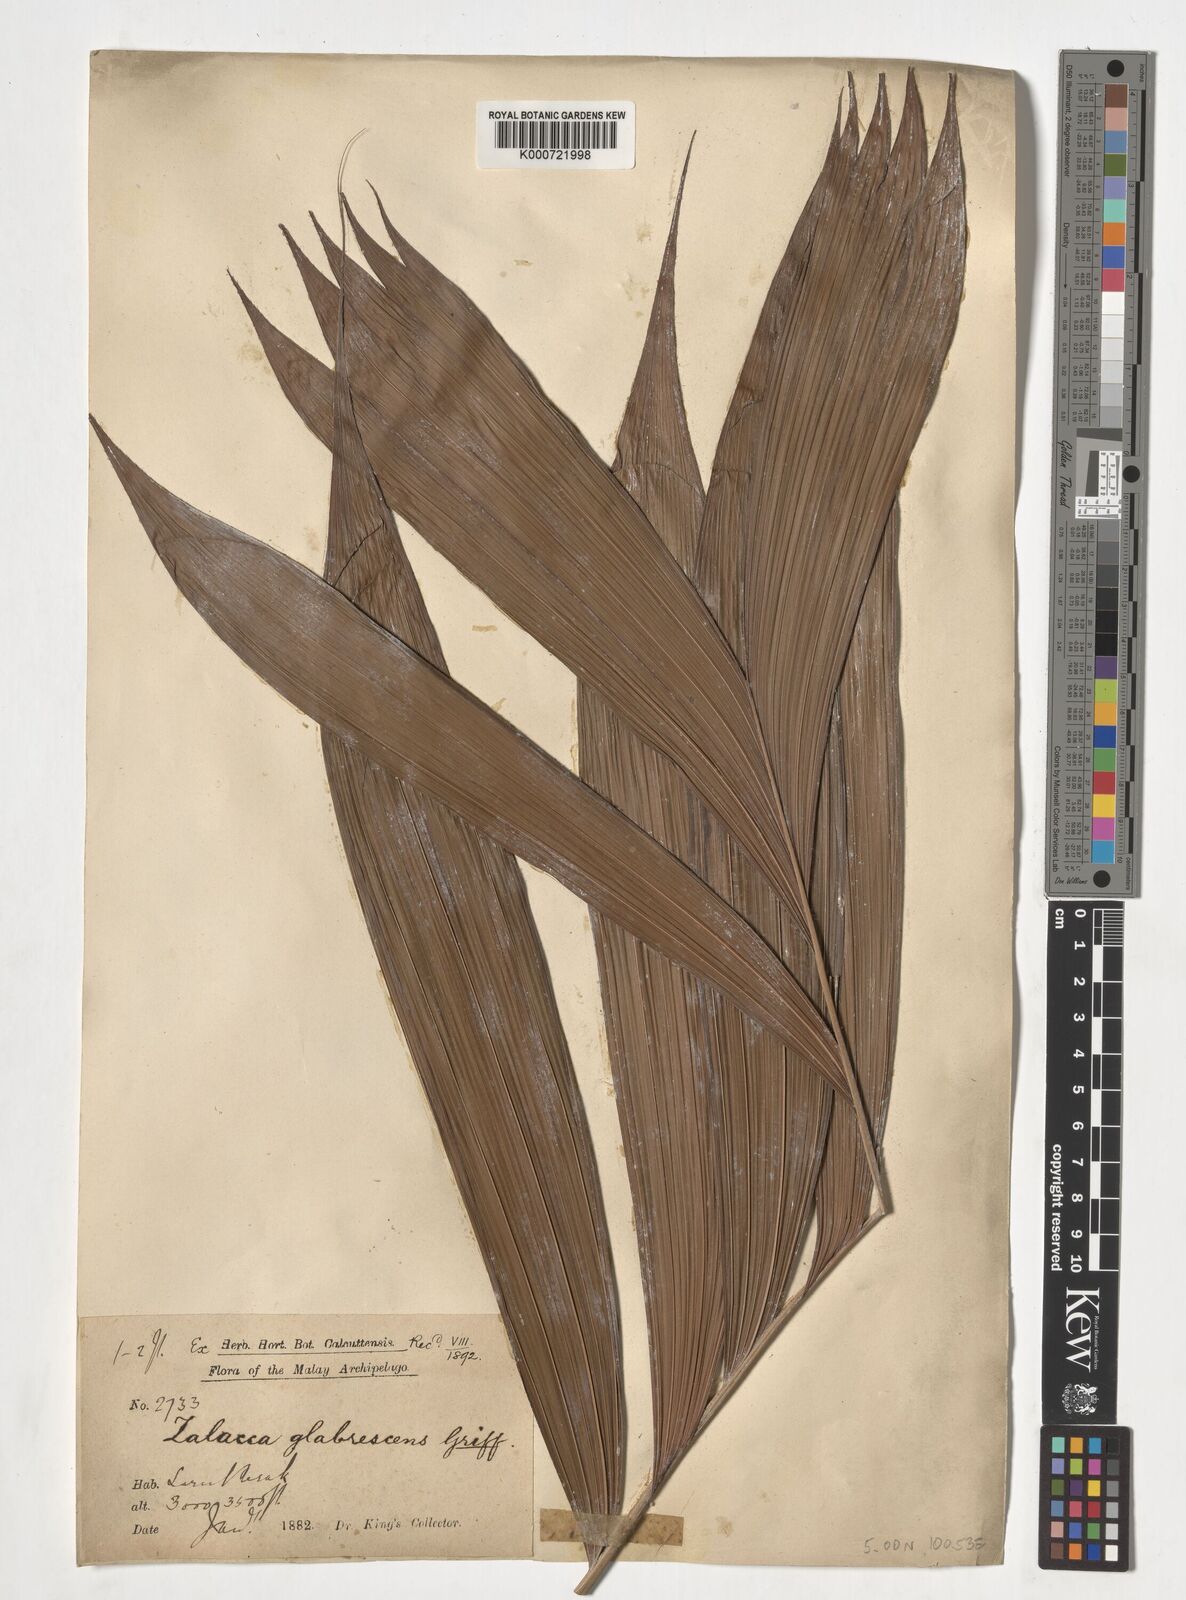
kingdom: Plantae
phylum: Tracheophyta
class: Liliopsida
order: Arecales
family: Arecaceae
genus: Salacca
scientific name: Salacca glabrescens
